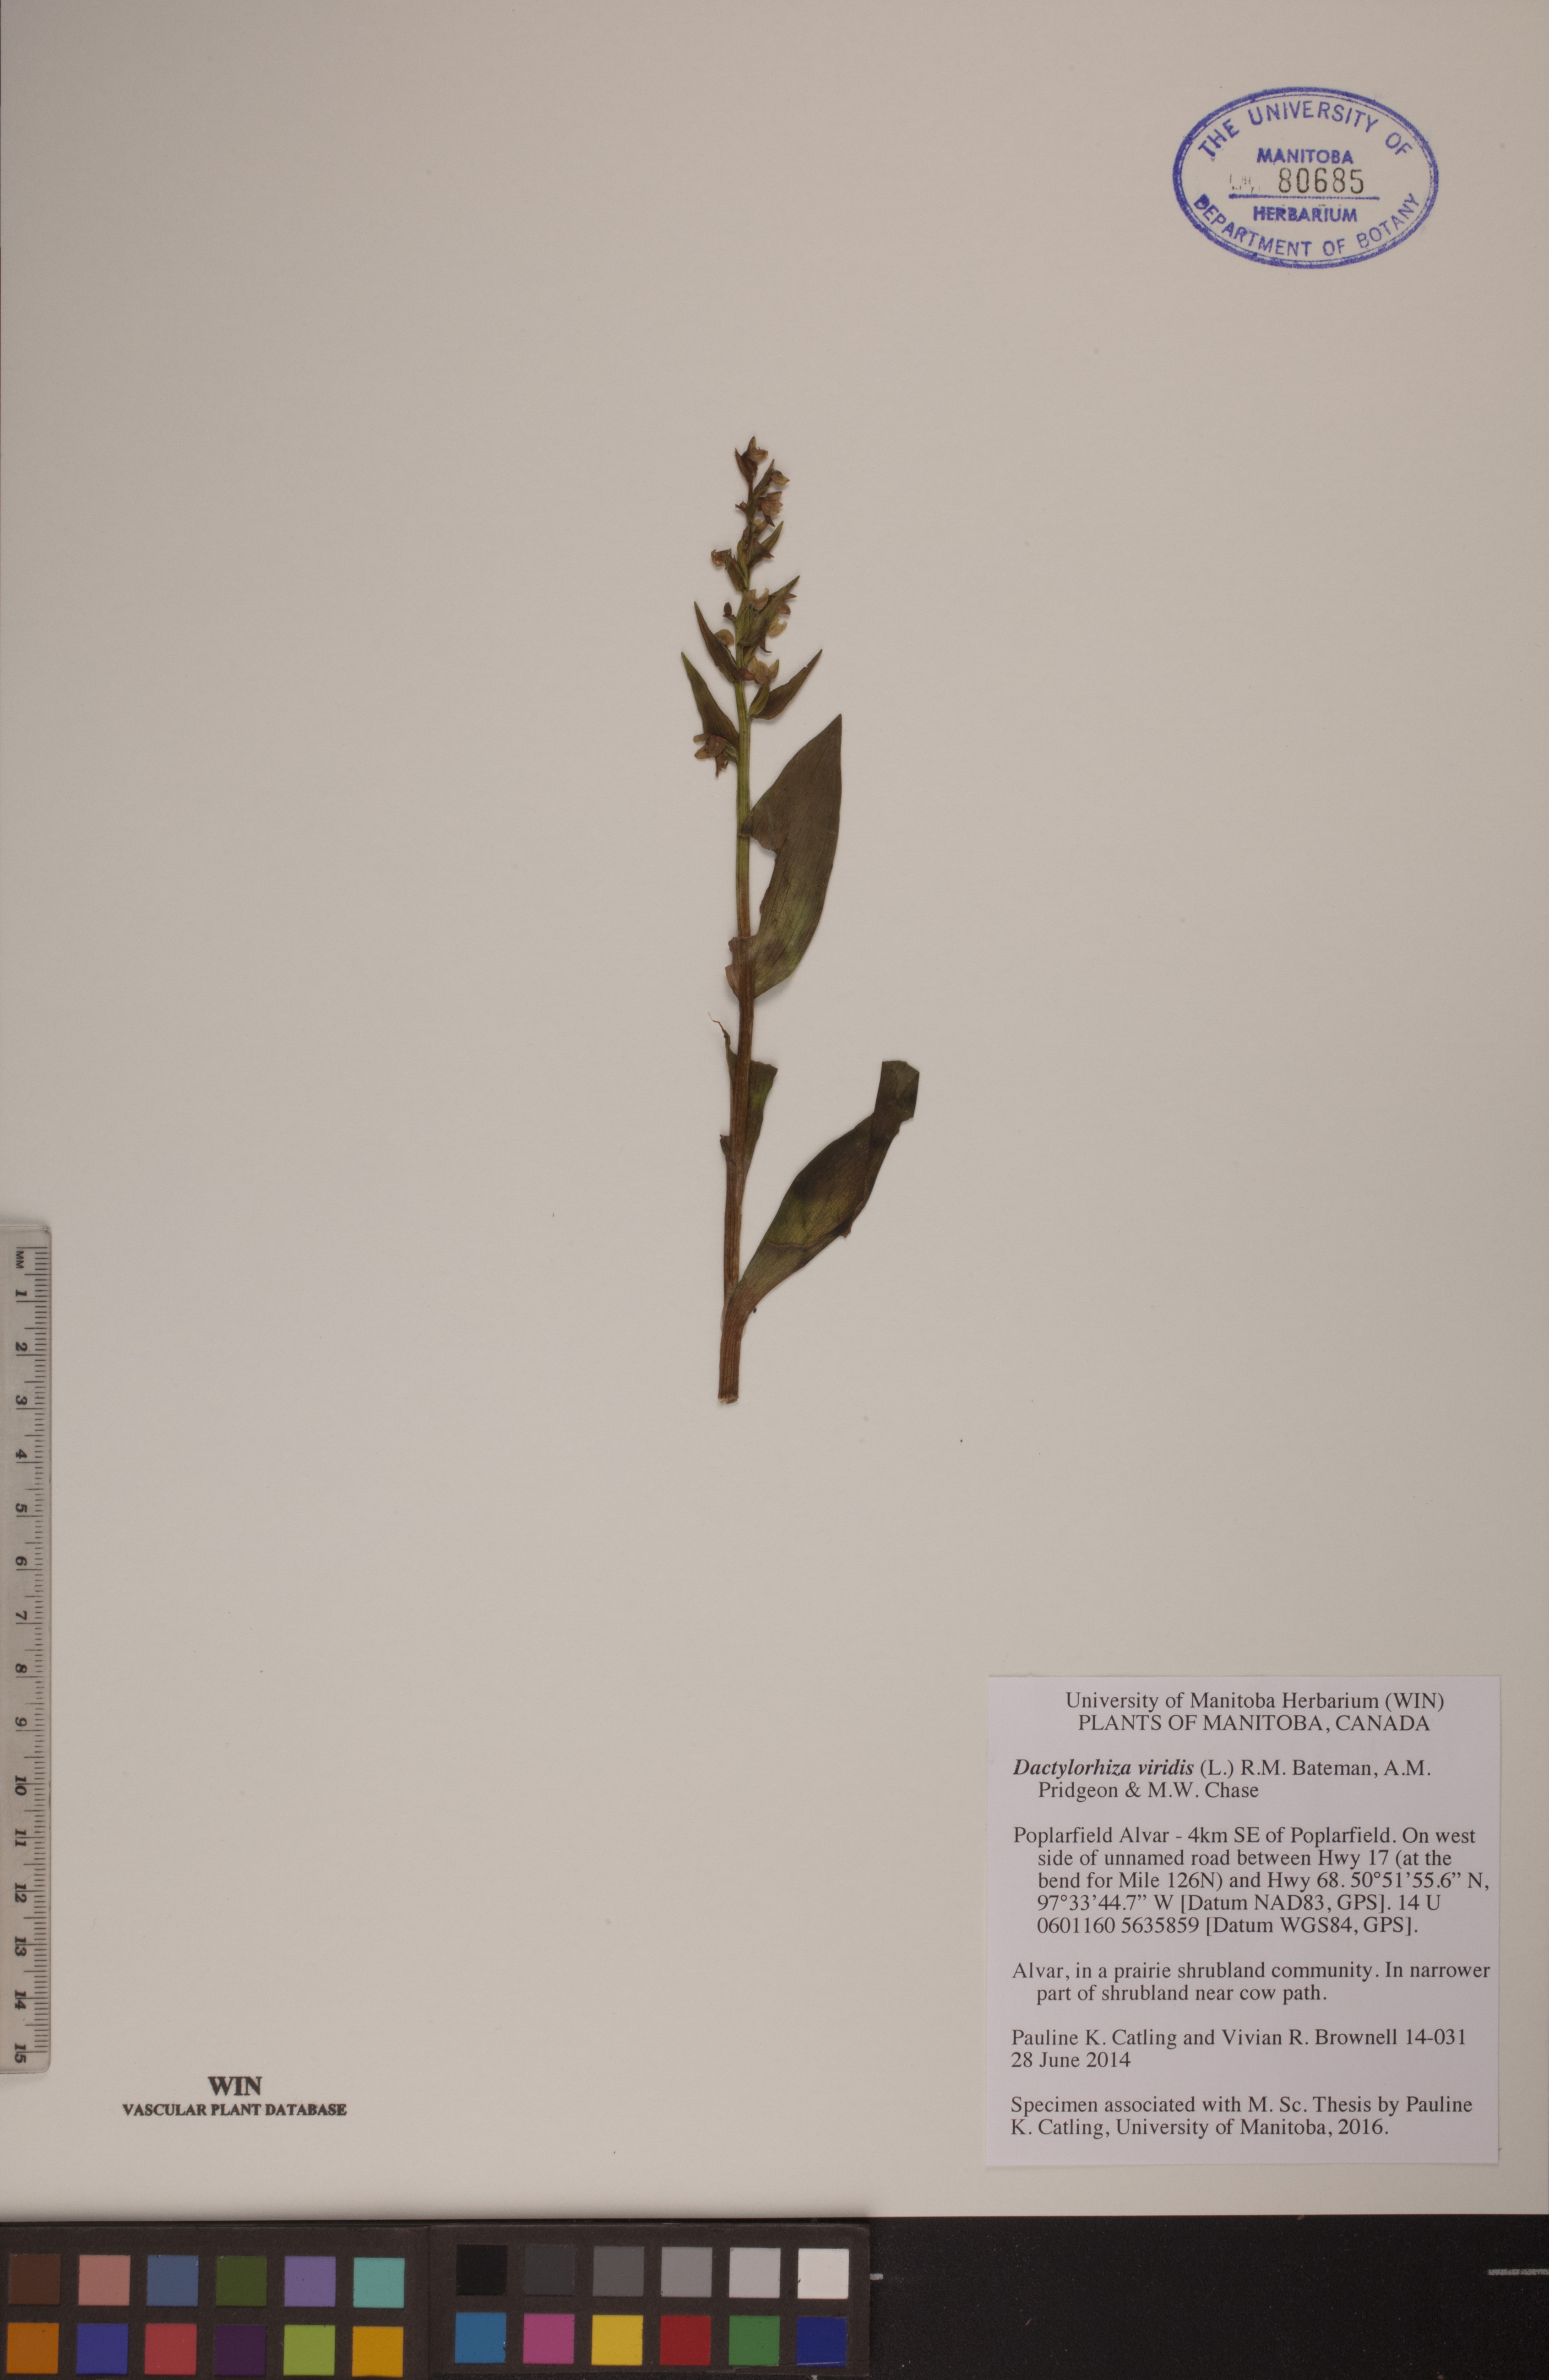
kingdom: Plantae
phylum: Tracheophyta
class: Liliopsida
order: Asparagales
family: Orchidaceae
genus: Dactylorhiza
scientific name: Dactylorhiza viridis
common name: Longbract frog orchid
